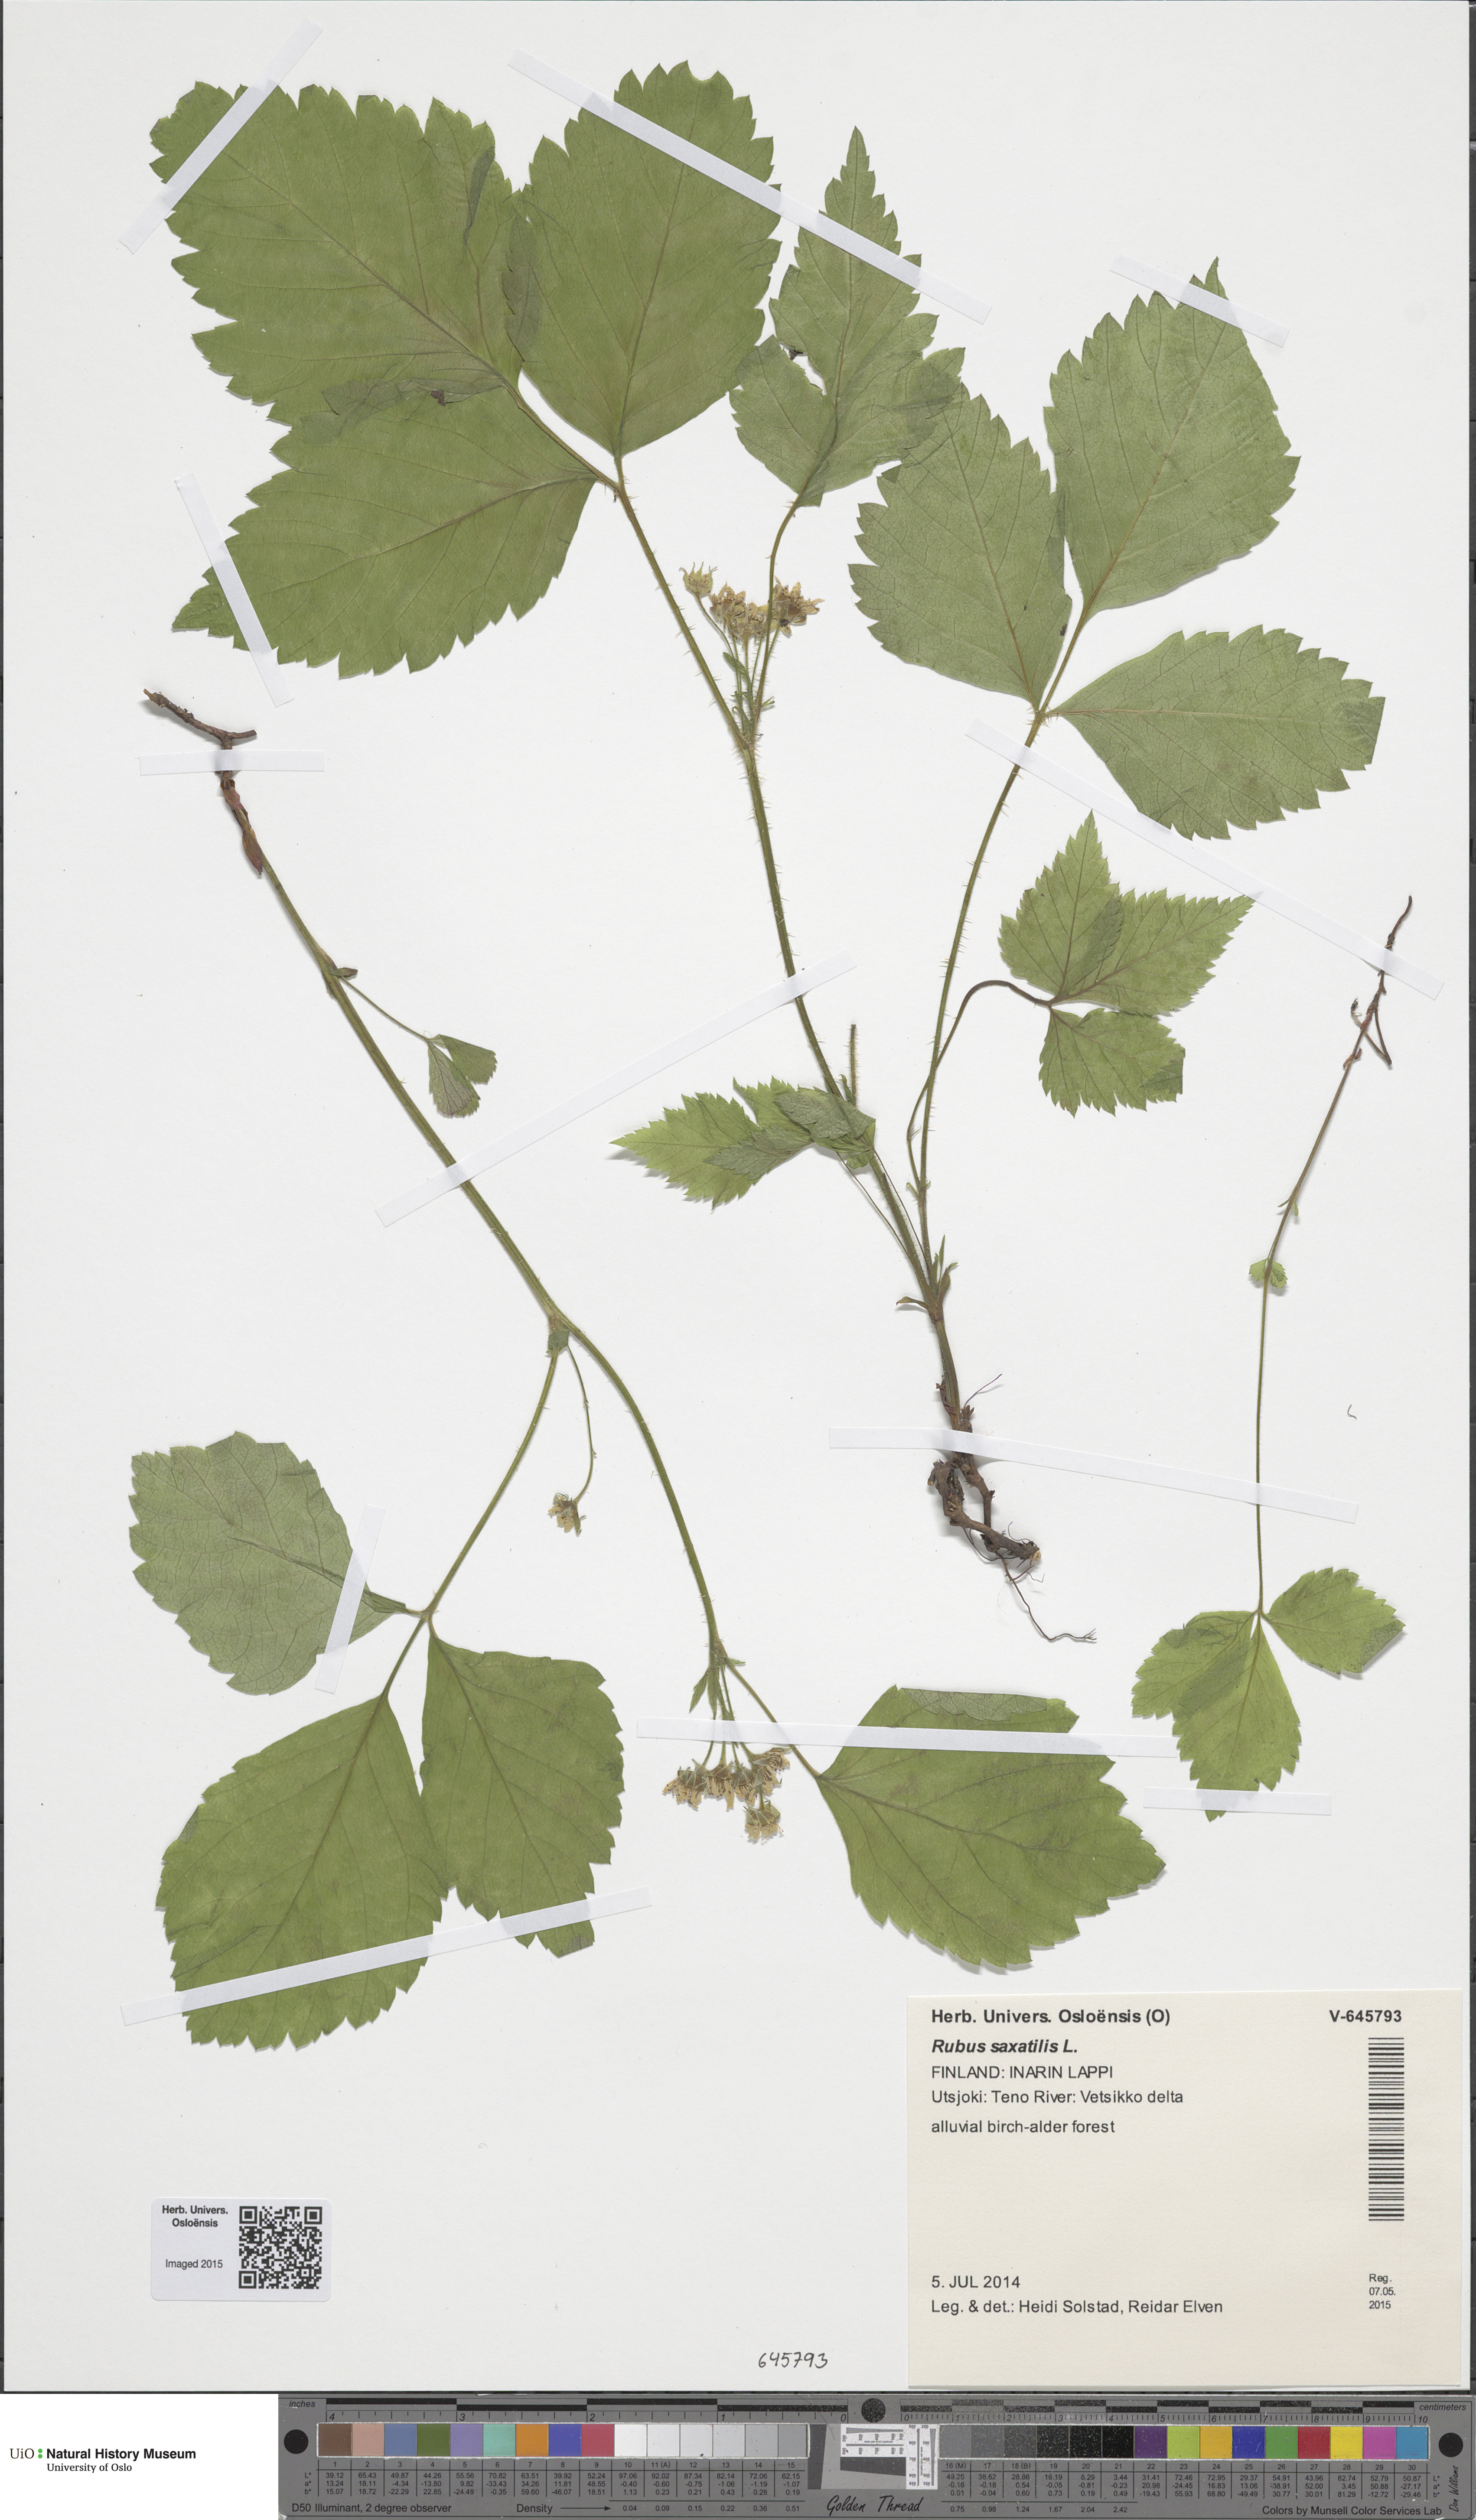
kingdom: Plantae
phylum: Tracheophyta
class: Magnoliopsida
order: Rosales
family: Rosaceae
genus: Rubus
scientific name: Rubus saxatilis
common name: Stone bramble
